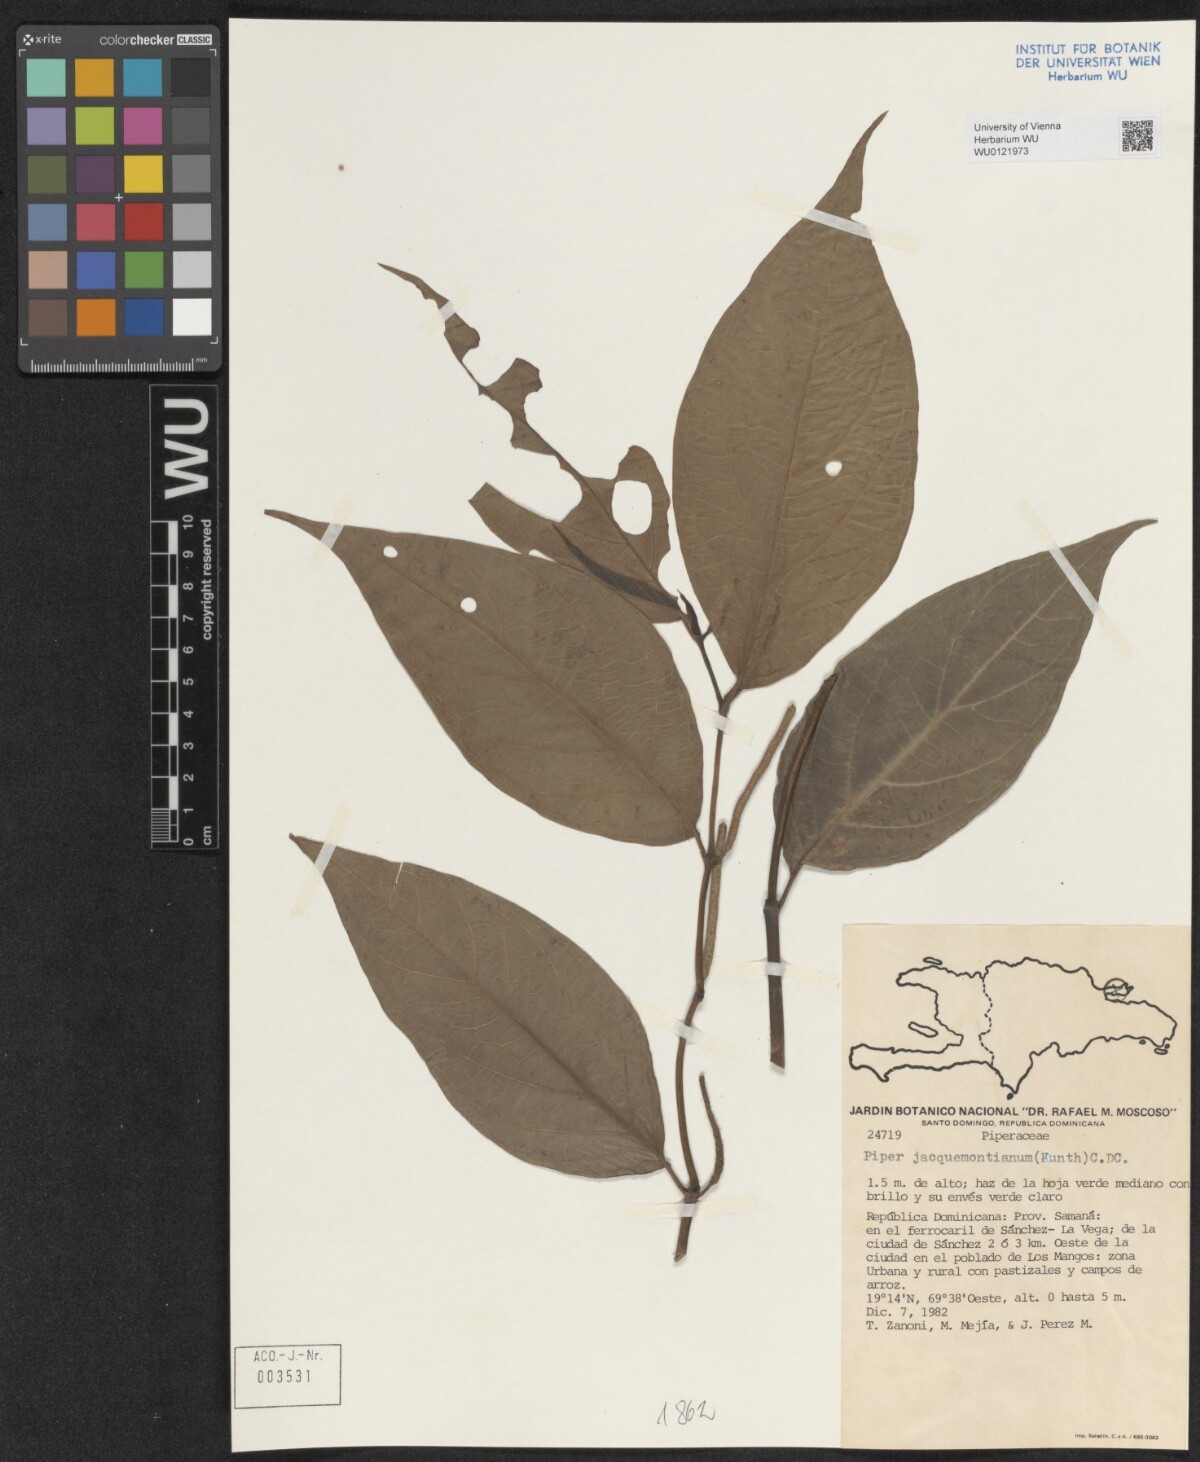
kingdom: Plantae
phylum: Tracheophyta
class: Magnoliopsida
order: Piperales
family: Piperaceae
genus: Piper
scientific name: Piper jacquemontianum
